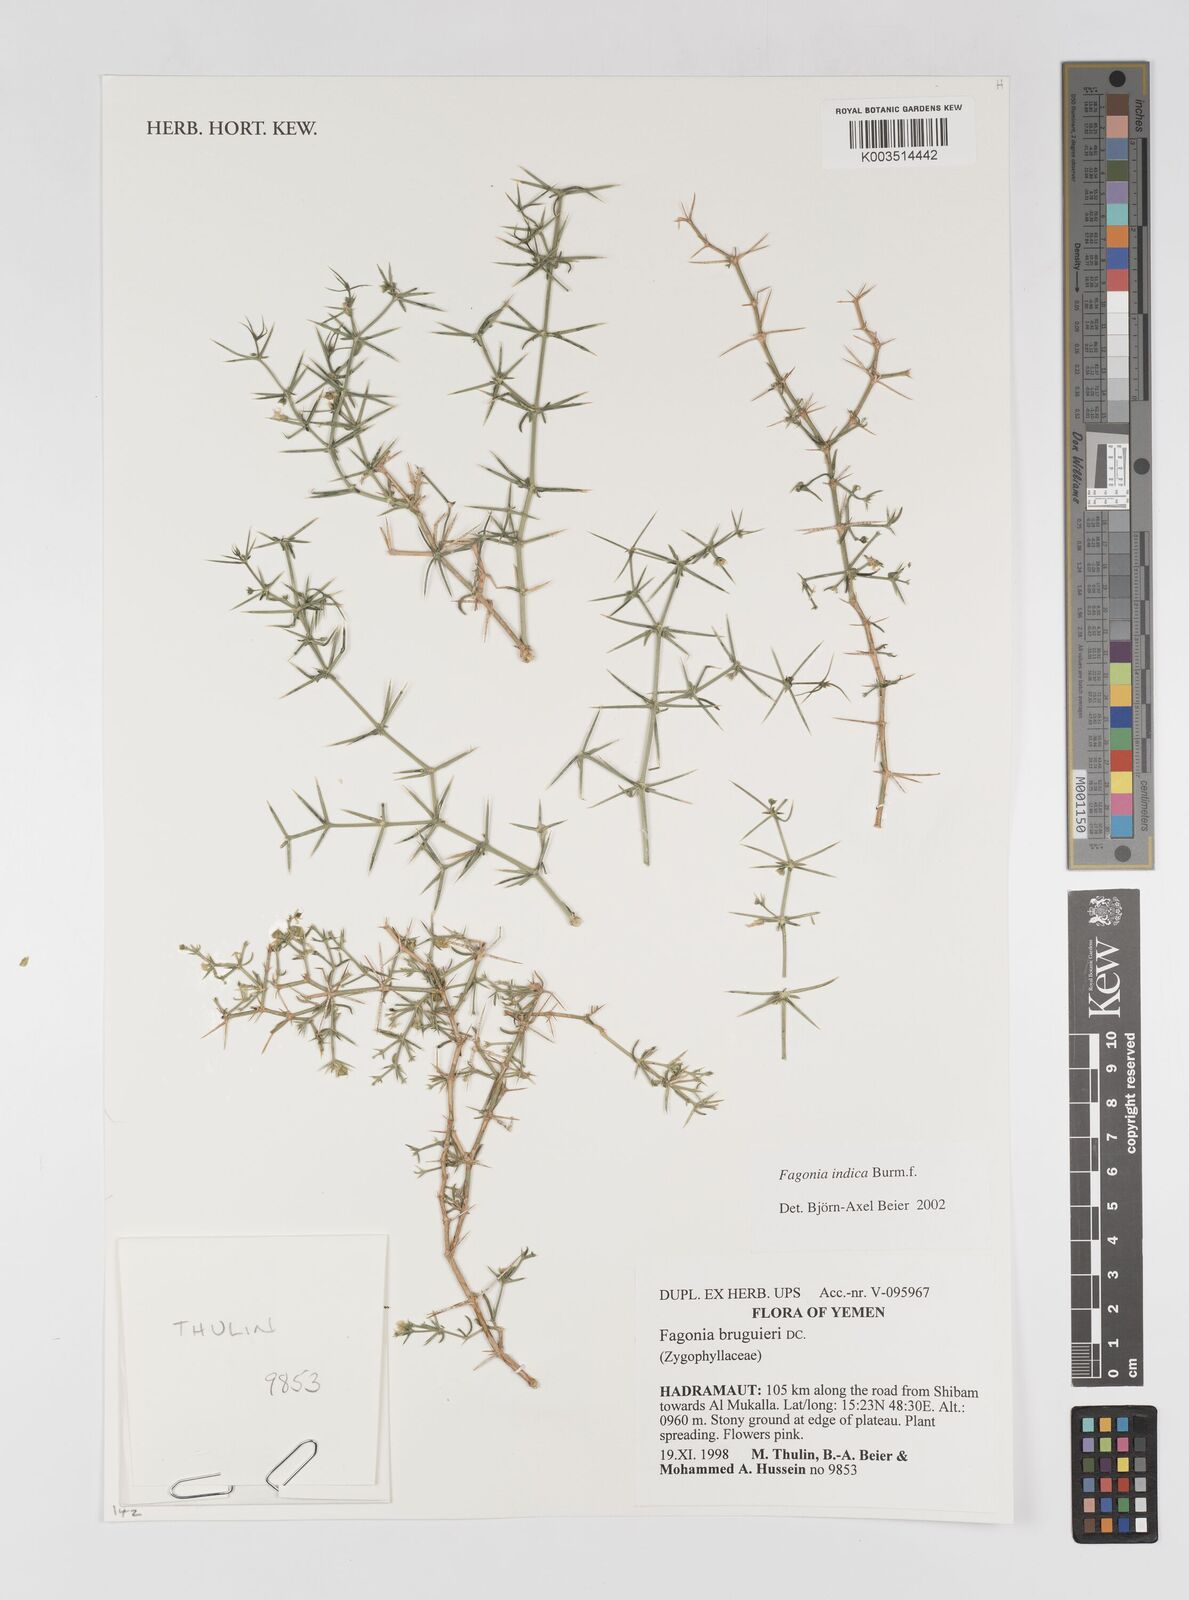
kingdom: Plantae
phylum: Tracheophyta
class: Magnoliopsida
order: Zygophyllales
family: Zygophyllaceae
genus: Fagonia
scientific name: Fagonia indica
